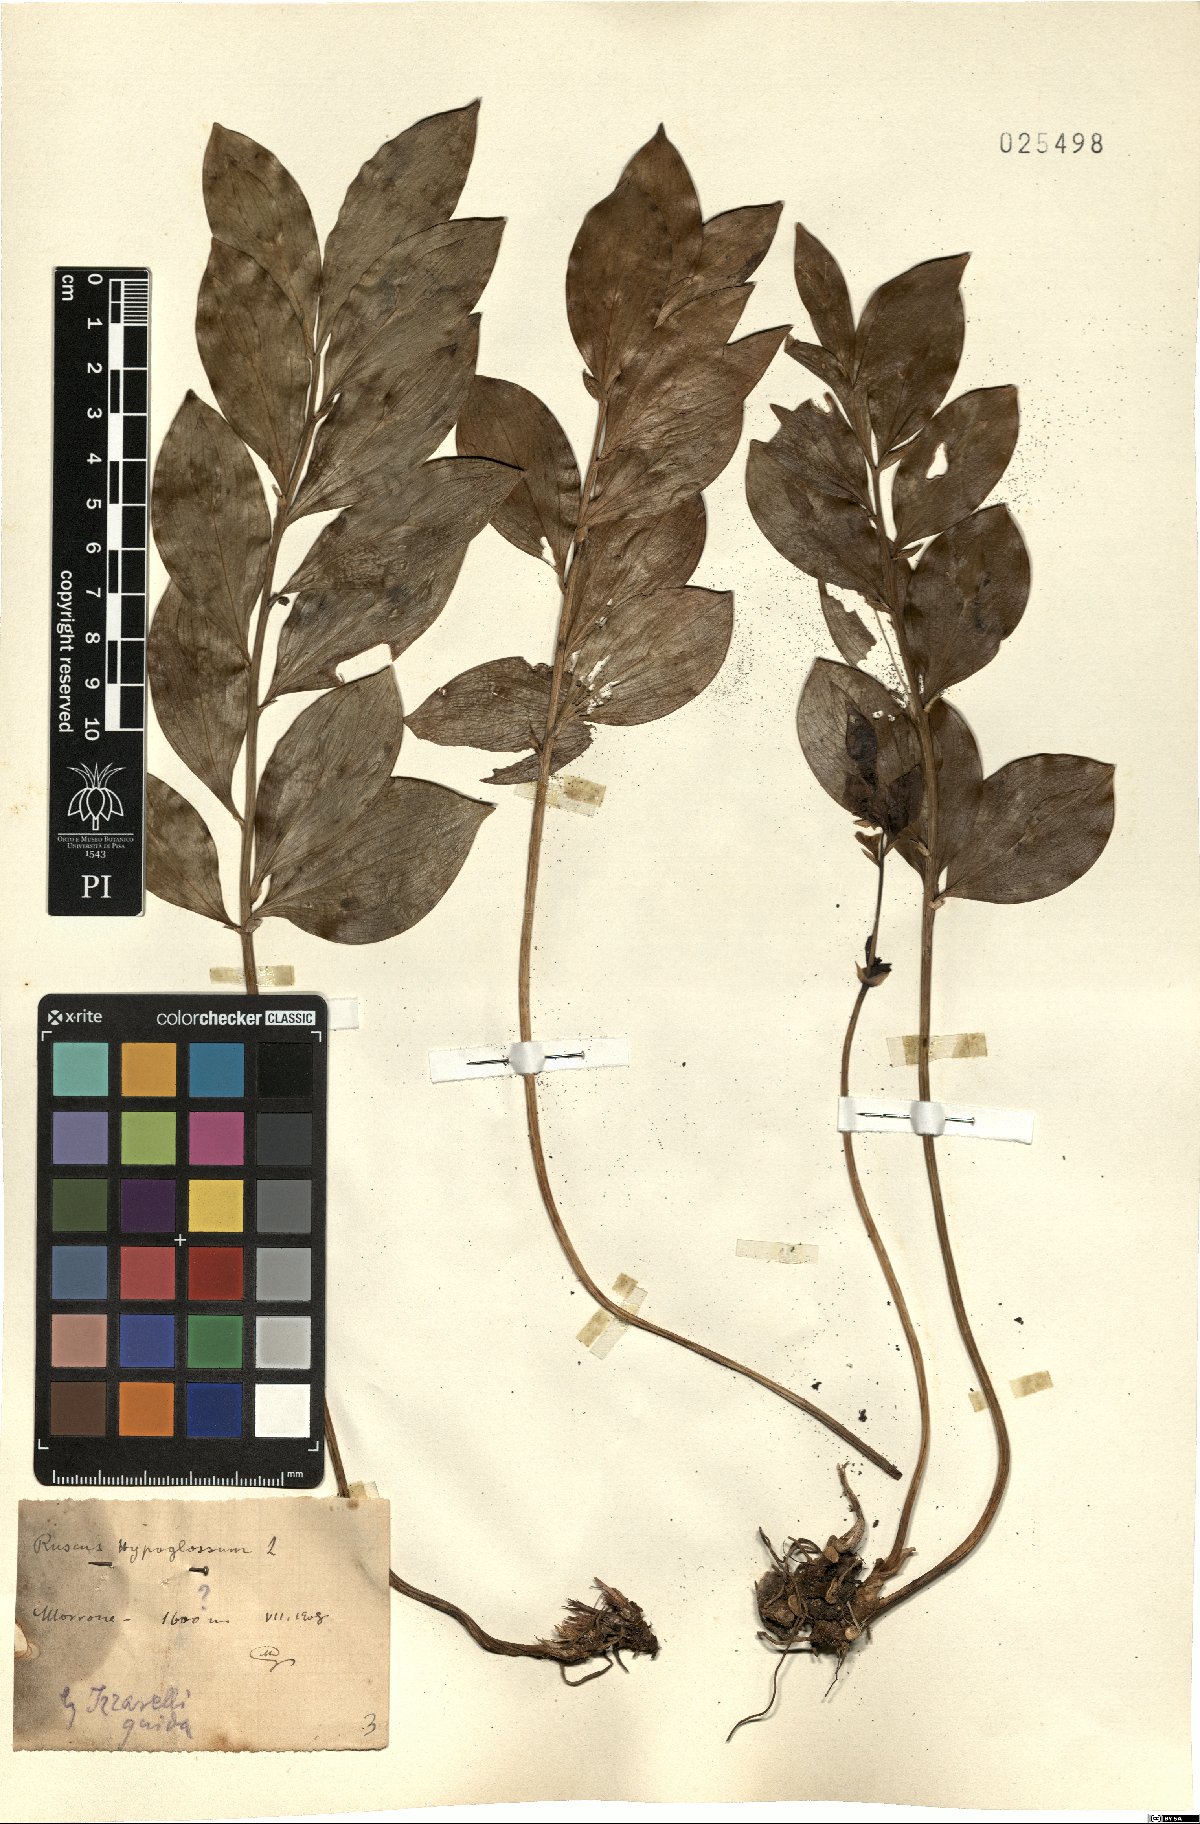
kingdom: Plantae
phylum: Tracheophyta
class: Liliopsida
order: Asparagales
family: Asparagaceae
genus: Ruscus
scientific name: Ruscus hypoglossum
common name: Spineless butcher's-broom
